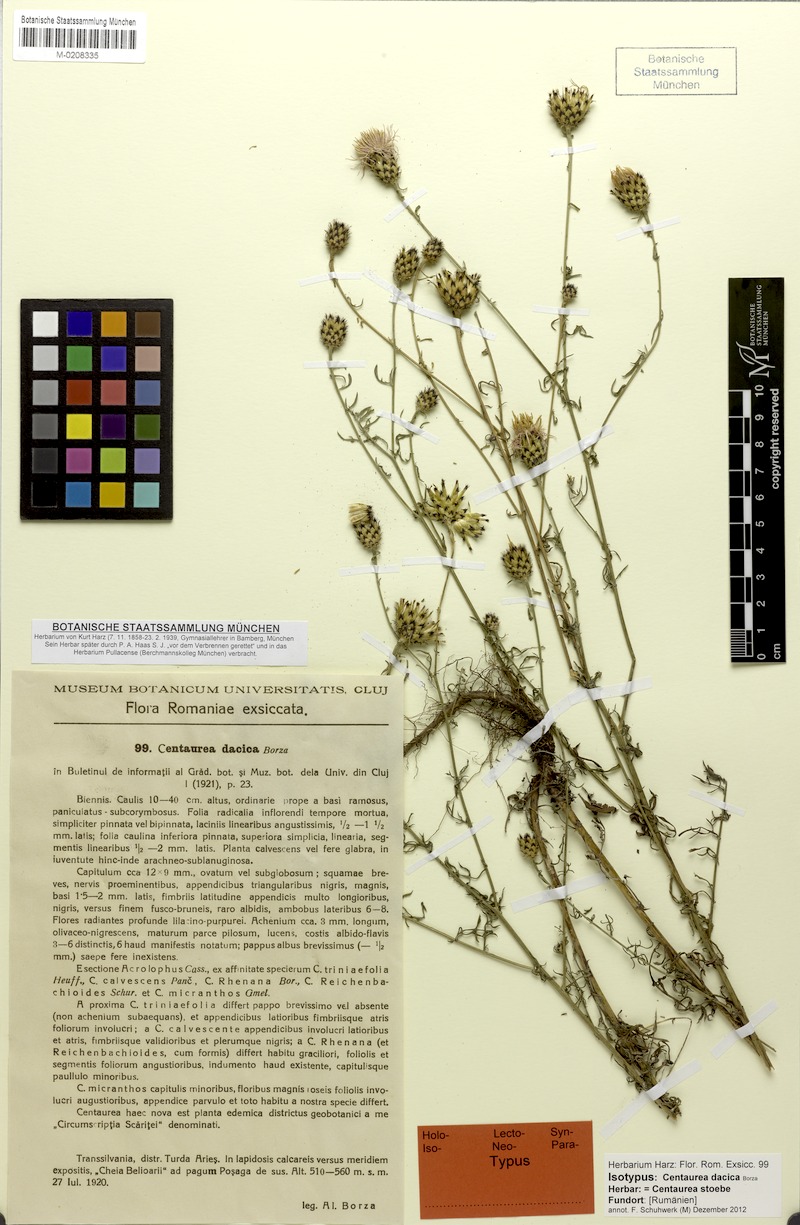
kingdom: Plantae
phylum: Tracheophyta
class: Magnoliopsida
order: Asterales
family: Asteraceae
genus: Centaurea
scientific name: Centaurea reichenbachii
